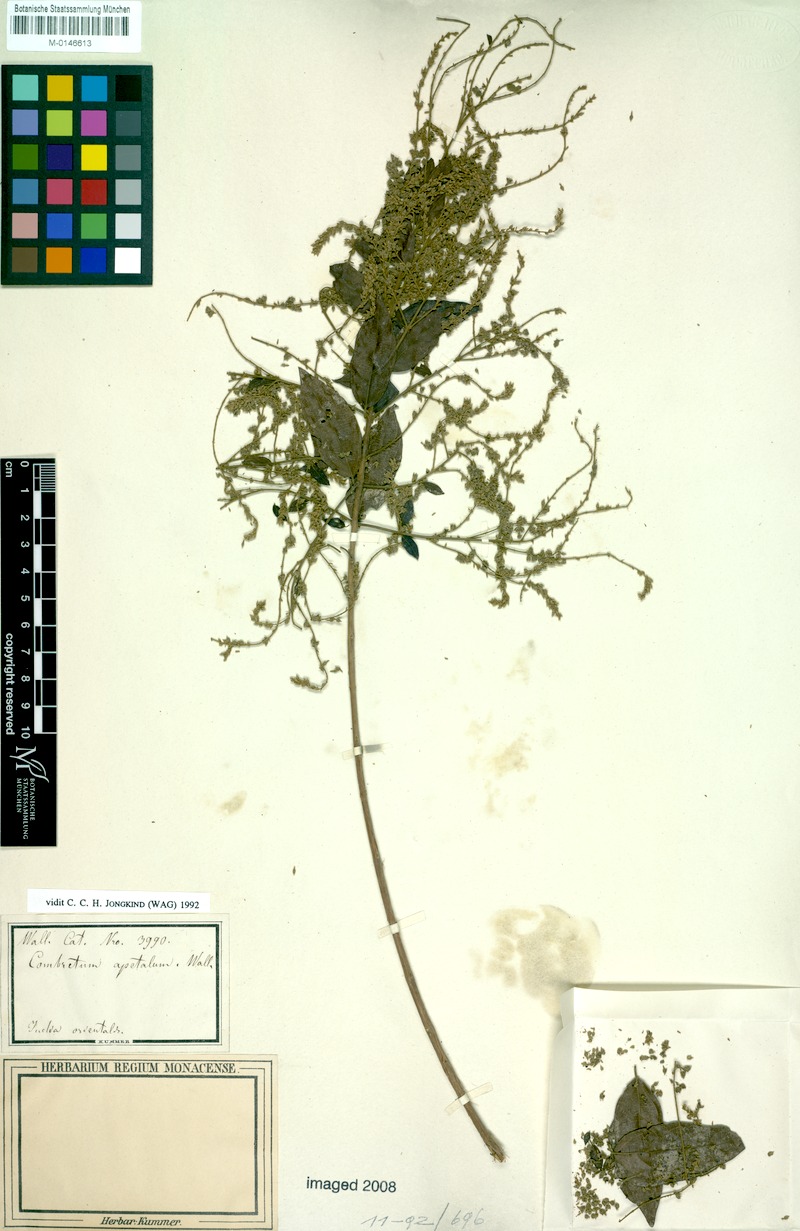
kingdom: Plantae
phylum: Tracheophyta
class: Magnoliopsida
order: Myrtales
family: Combretaceae
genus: Combretum
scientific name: Combretum apetalum
